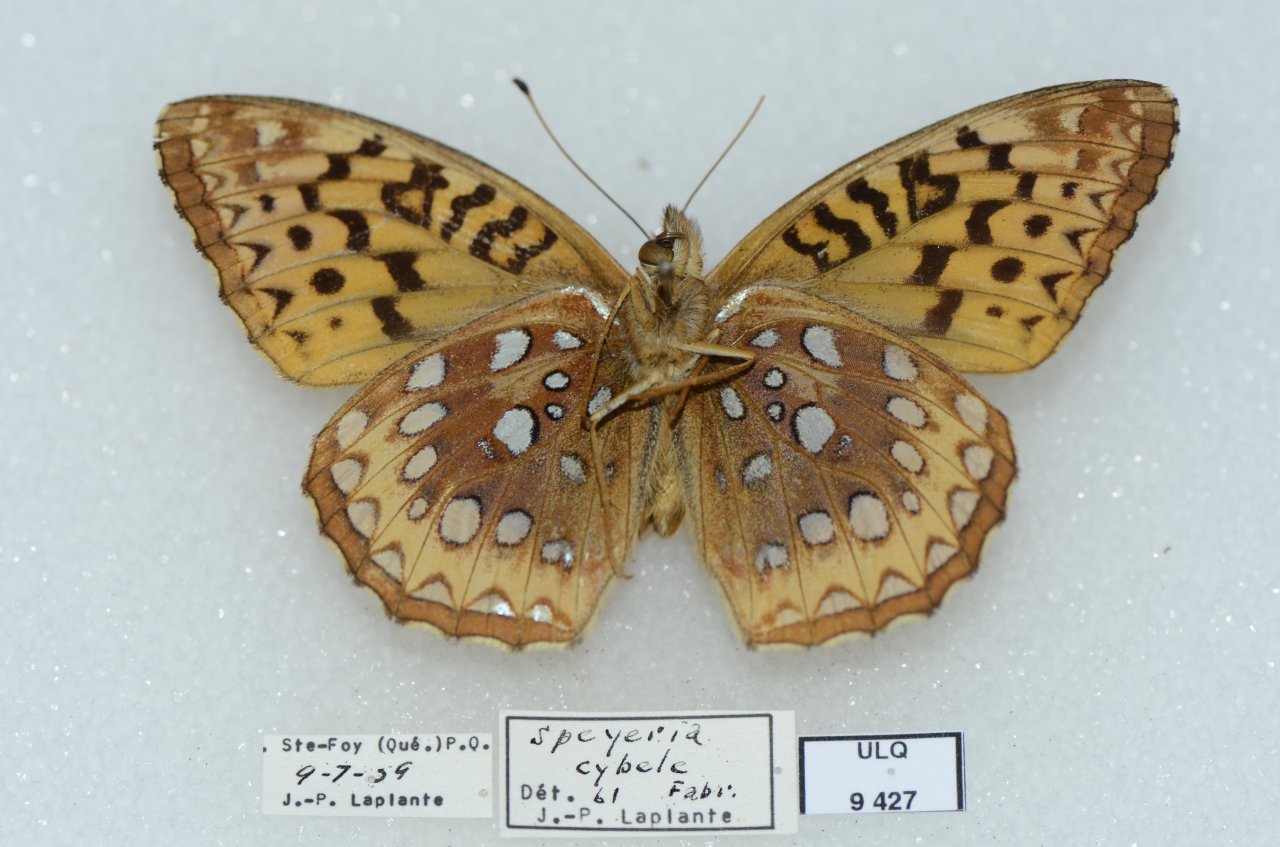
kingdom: Animalia
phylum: Arthropoda
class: Insecta
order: Lepidoptera
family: Nymphalidae
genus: Speyeria
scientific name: Speyeria cybele
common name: Great Spangled Fritillary
